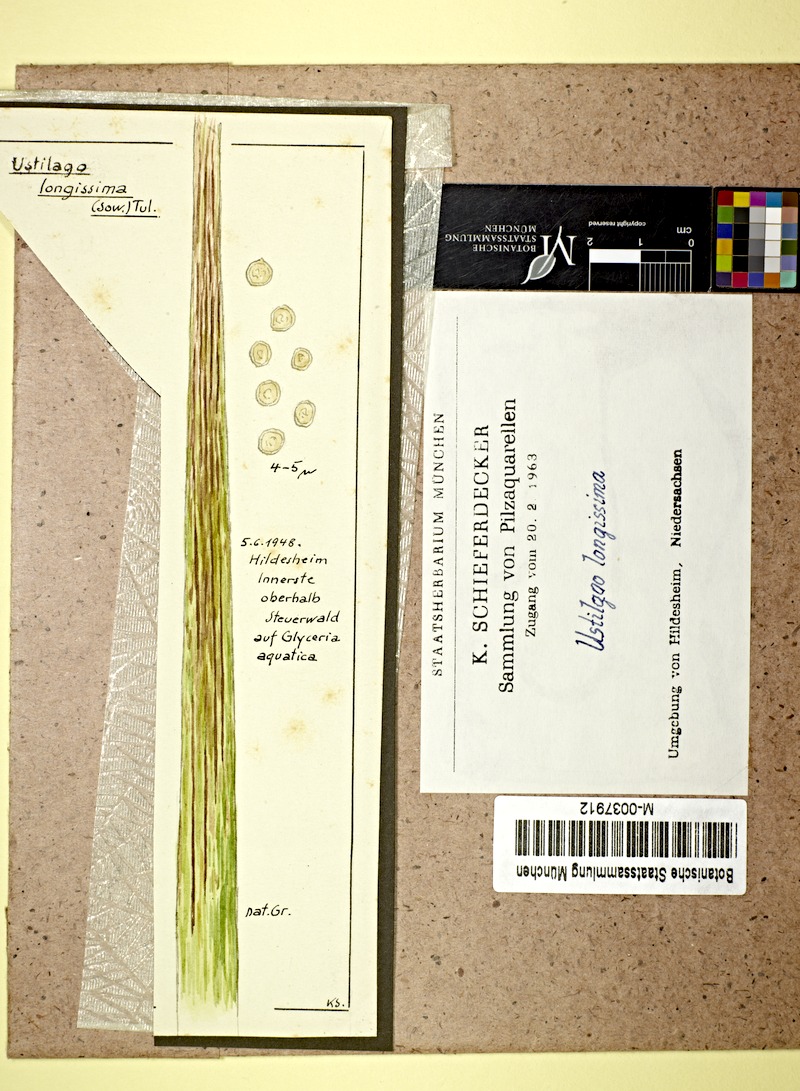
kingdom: Plantae
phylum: Tracheophyta
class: Liliopsida
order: Poales
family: Poaceae
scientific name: Poaceae
